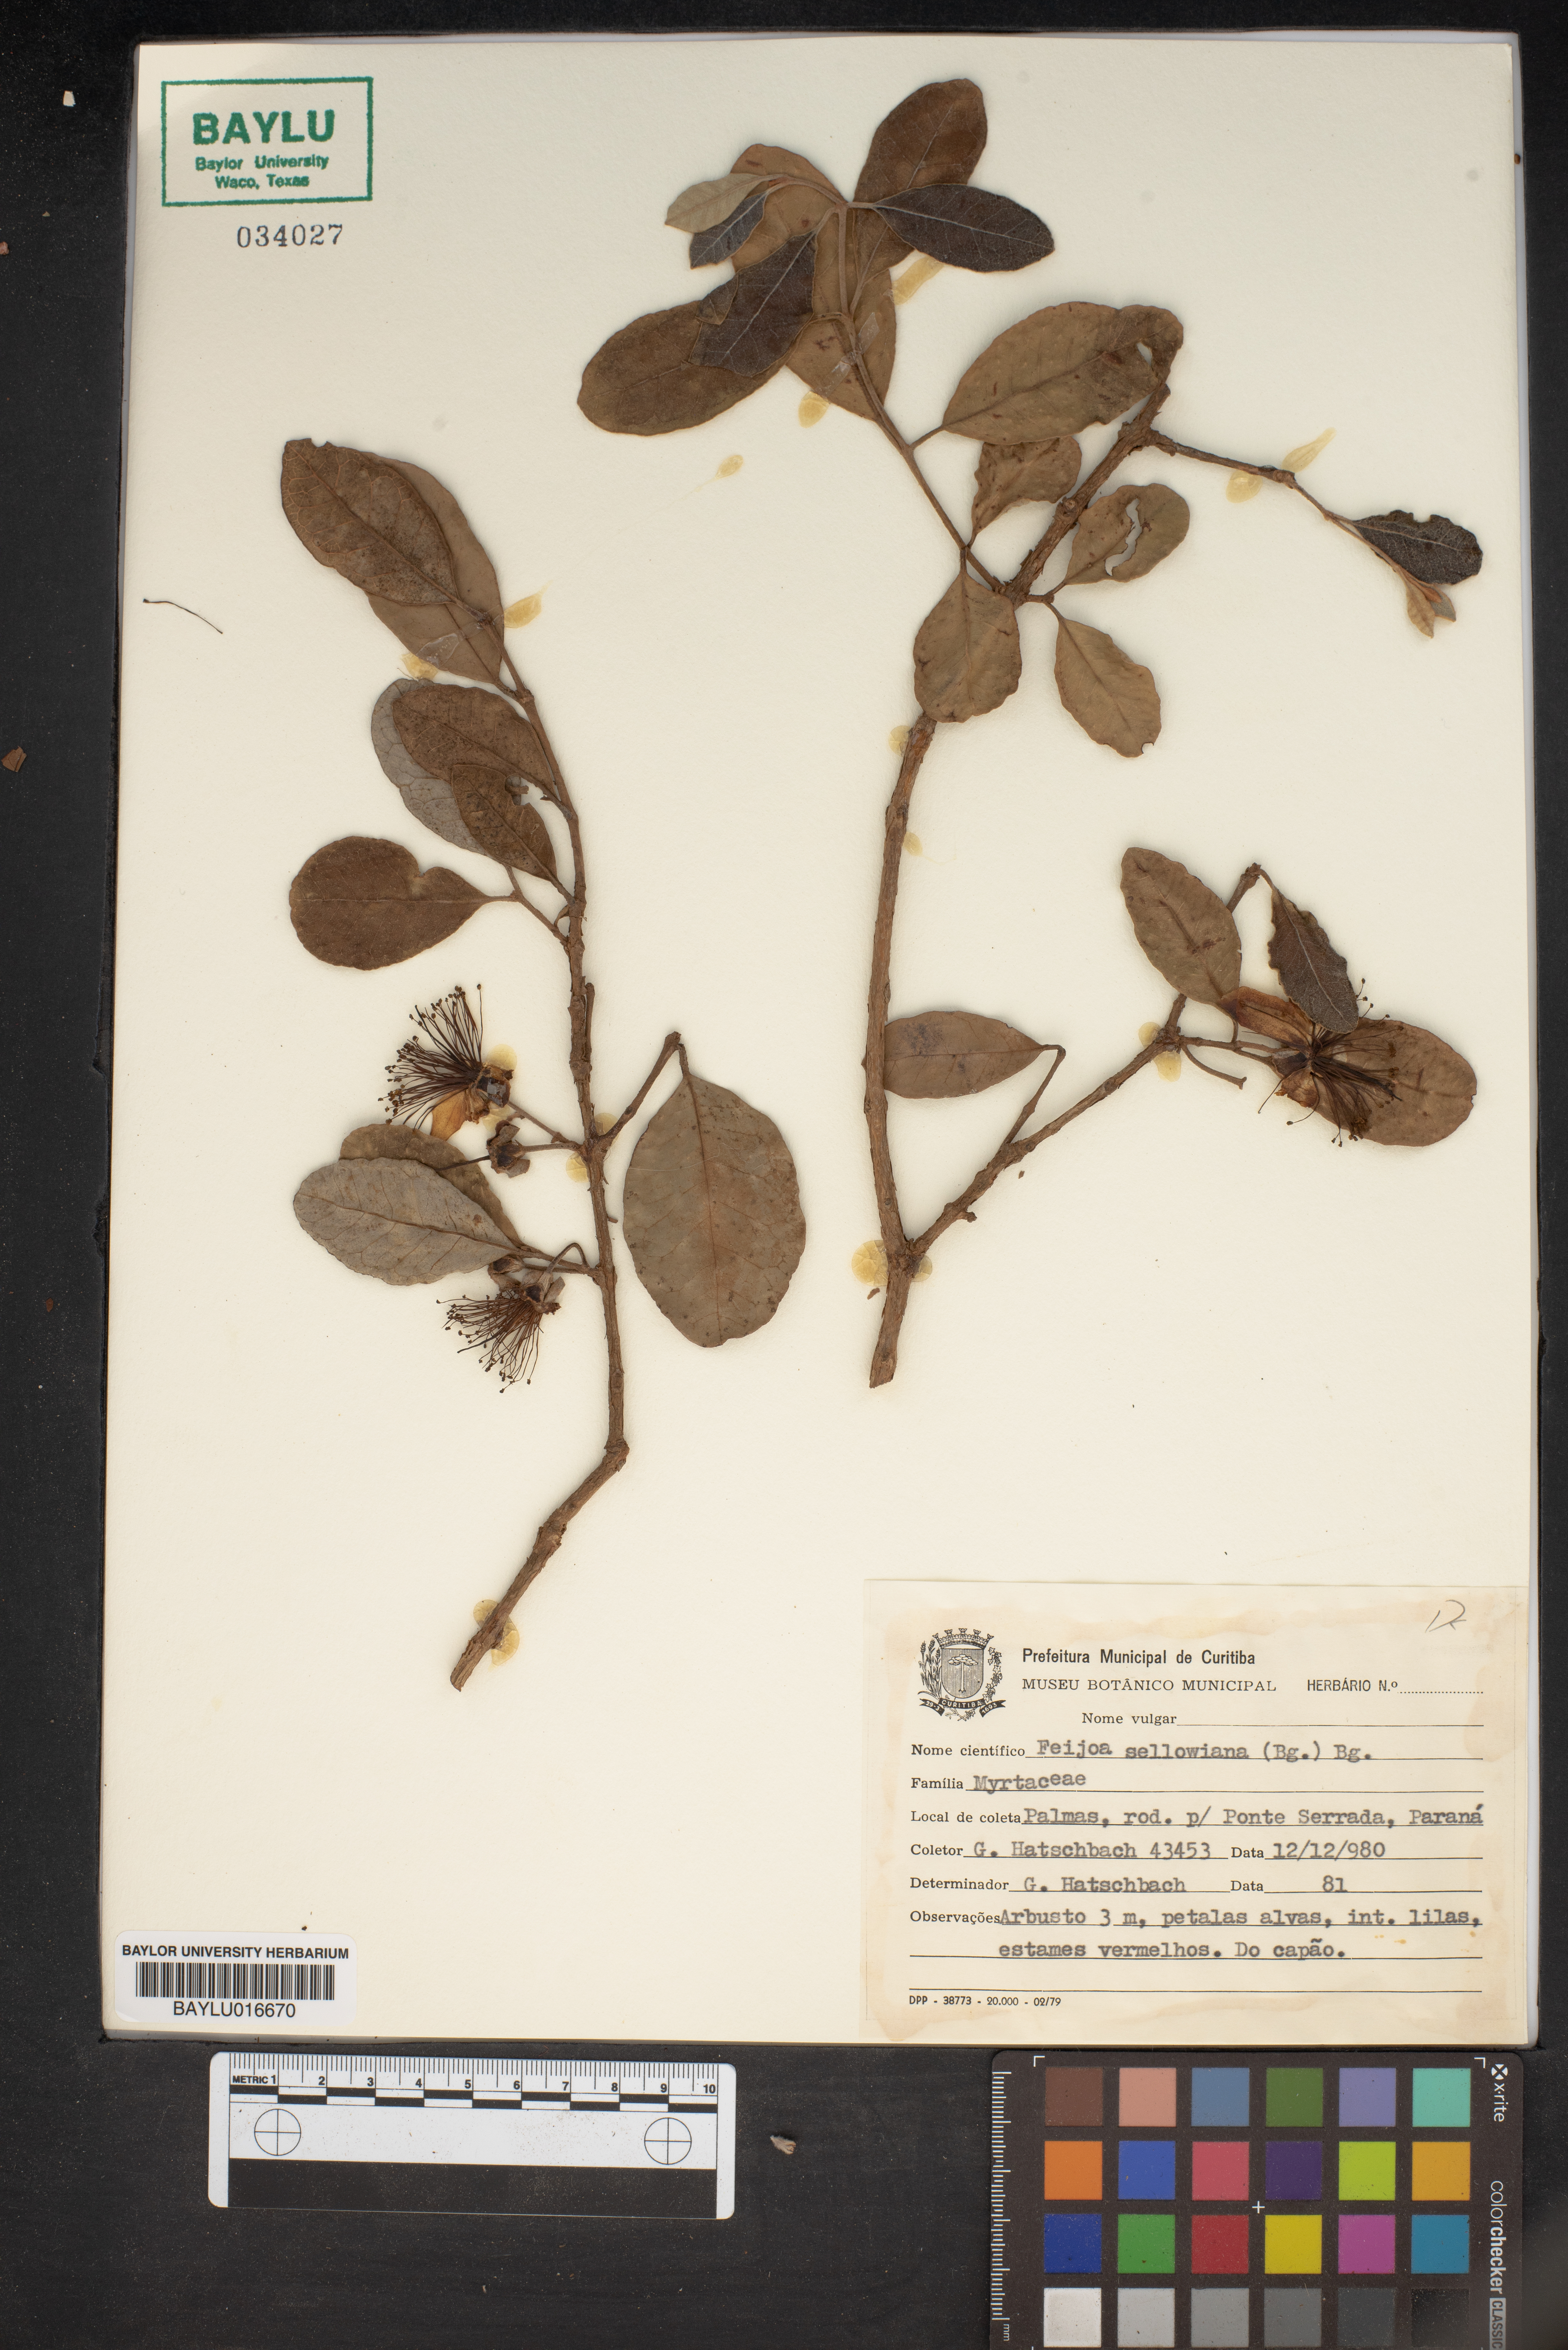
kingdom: Plantae
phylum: Tracheophyta
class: Magnoliopsida
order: Myrtales
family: Myrtaceae
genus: Feijoa
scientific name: Feijoa sellowiana
